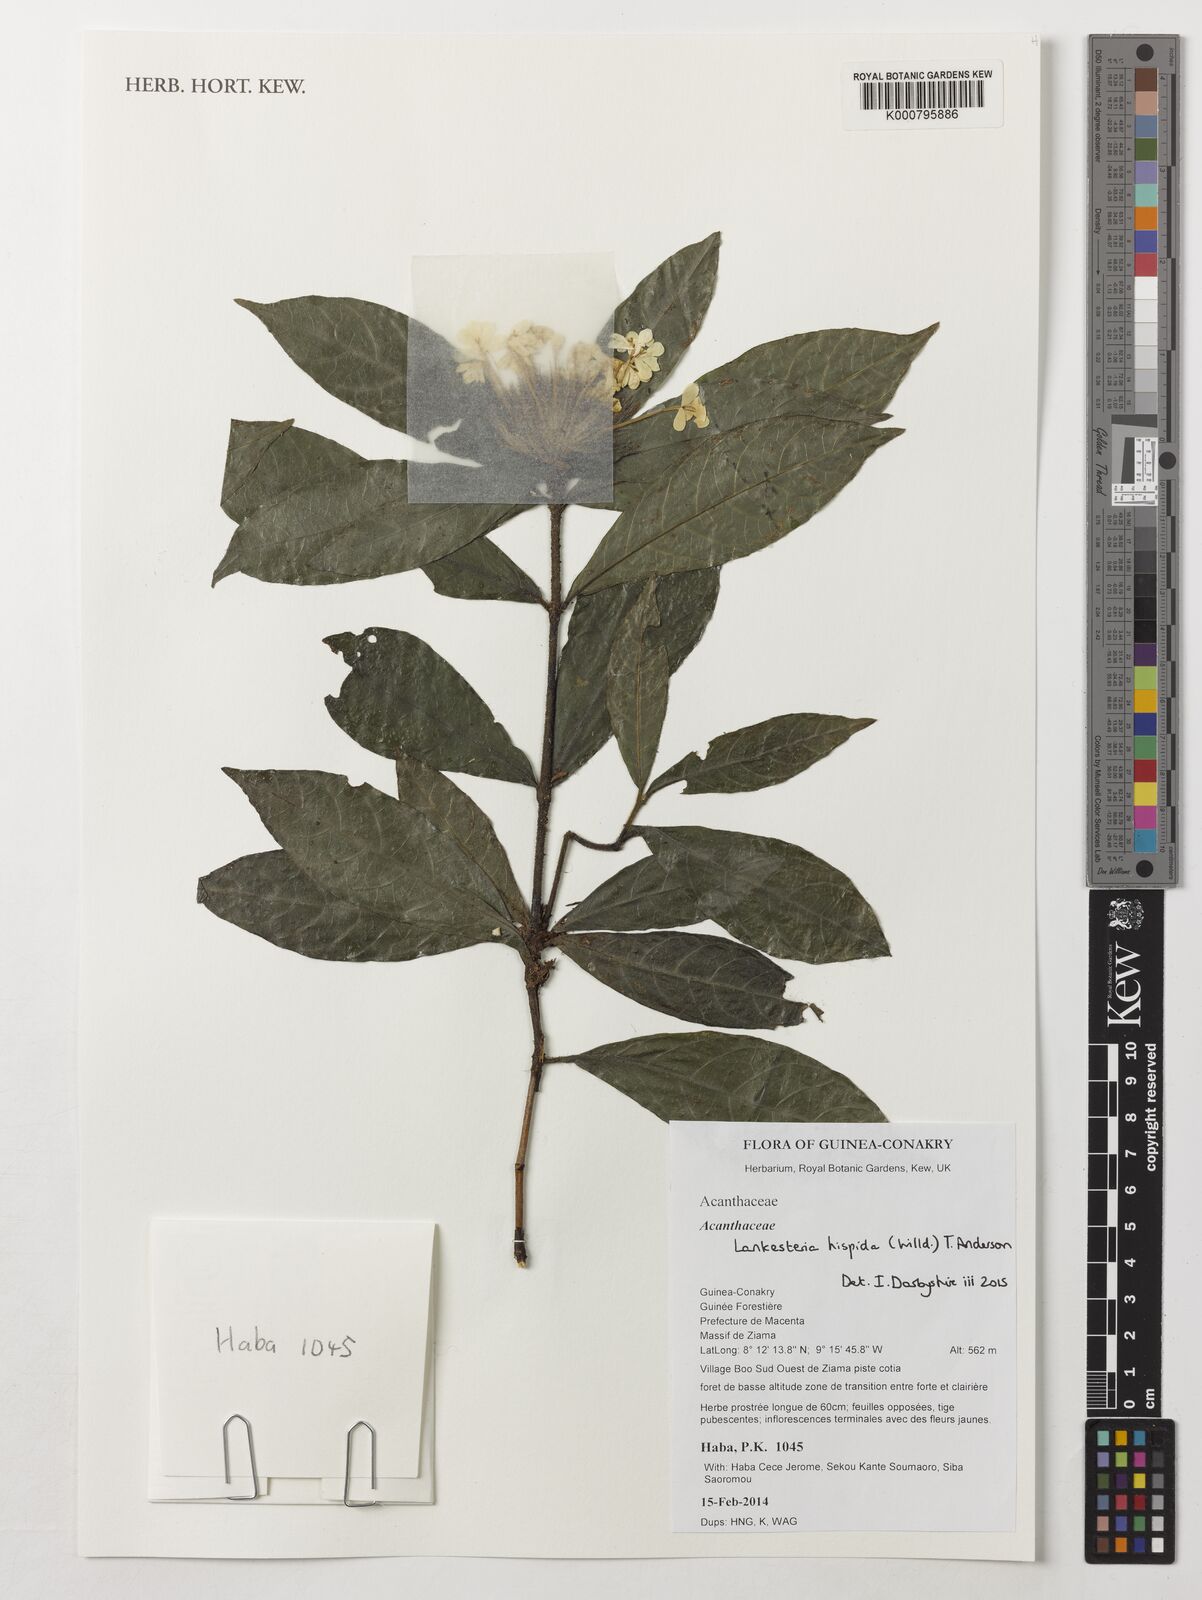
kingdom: Plantae
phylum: Tracheophyta
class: Magnoliopsida
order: Lamiales
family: Acanthaceae
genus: Lankesteria
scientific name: Lankesteria hispida
